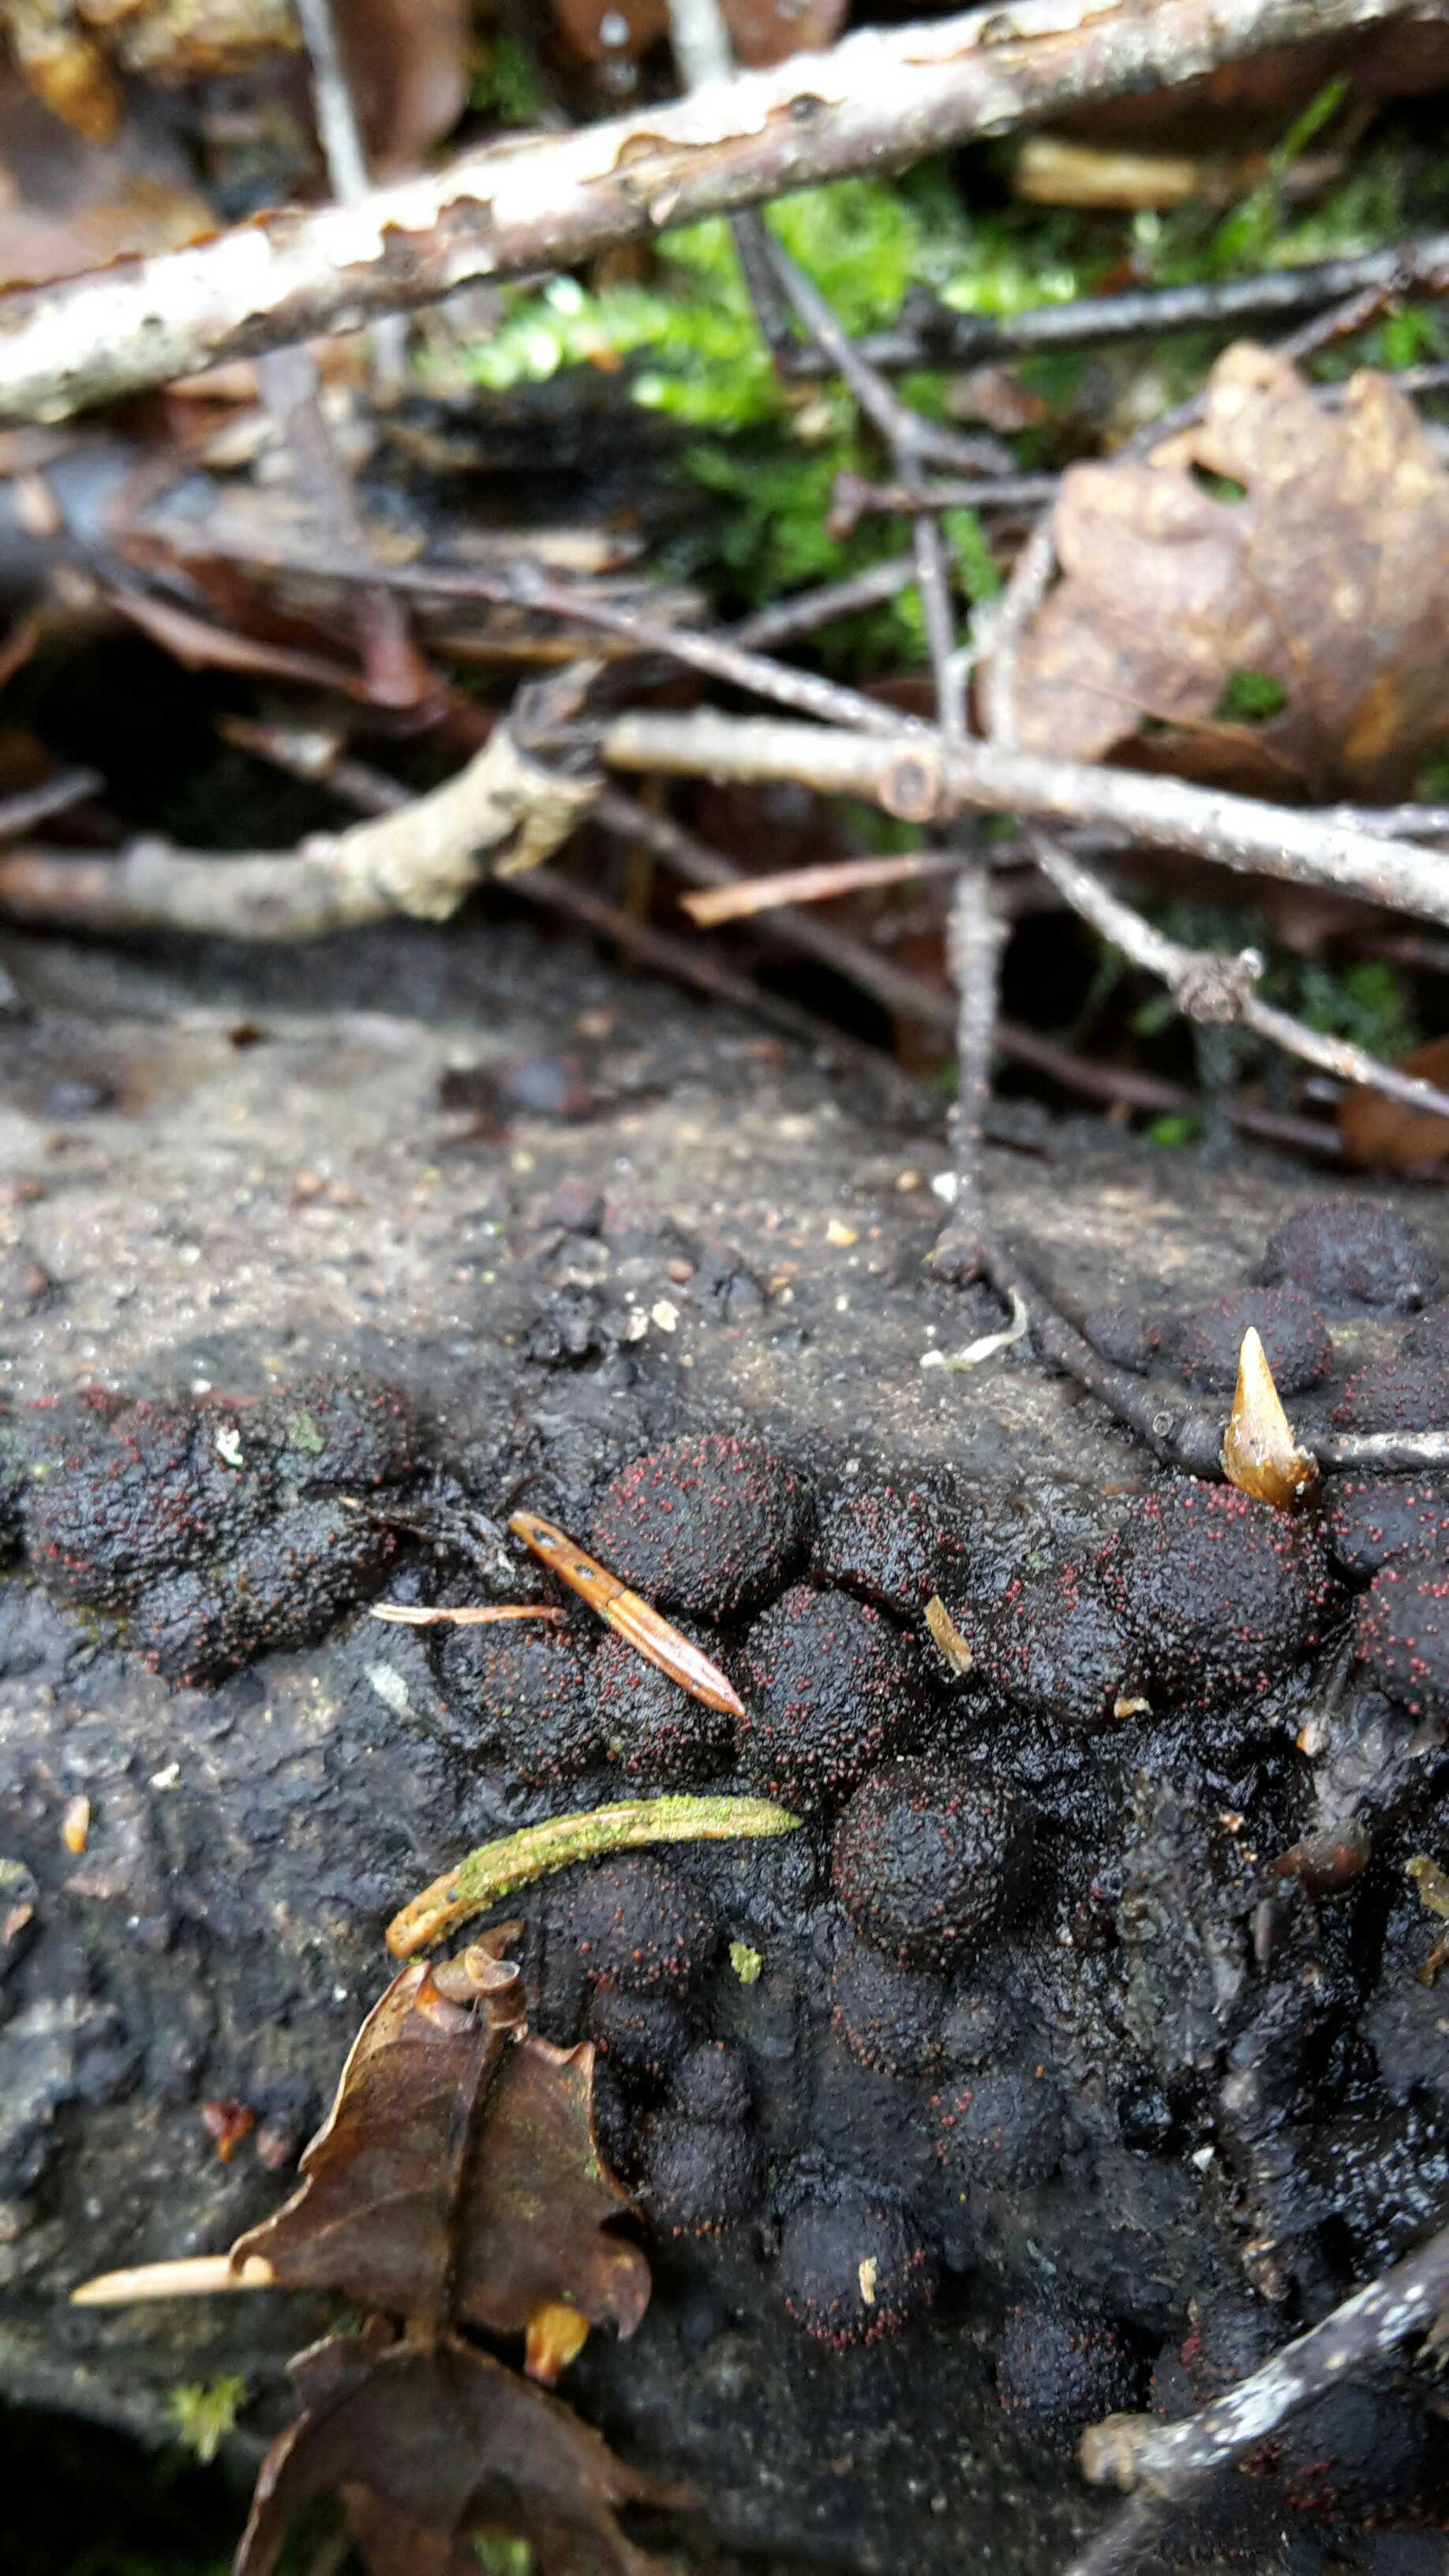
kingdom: Fungi
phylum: Ascomycota
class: Sordariomycetes
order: Xylariales
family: Hypoxylaceae
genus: Hypoxylon
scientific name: Hypoxylon fragiforme
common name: kuljordbær
